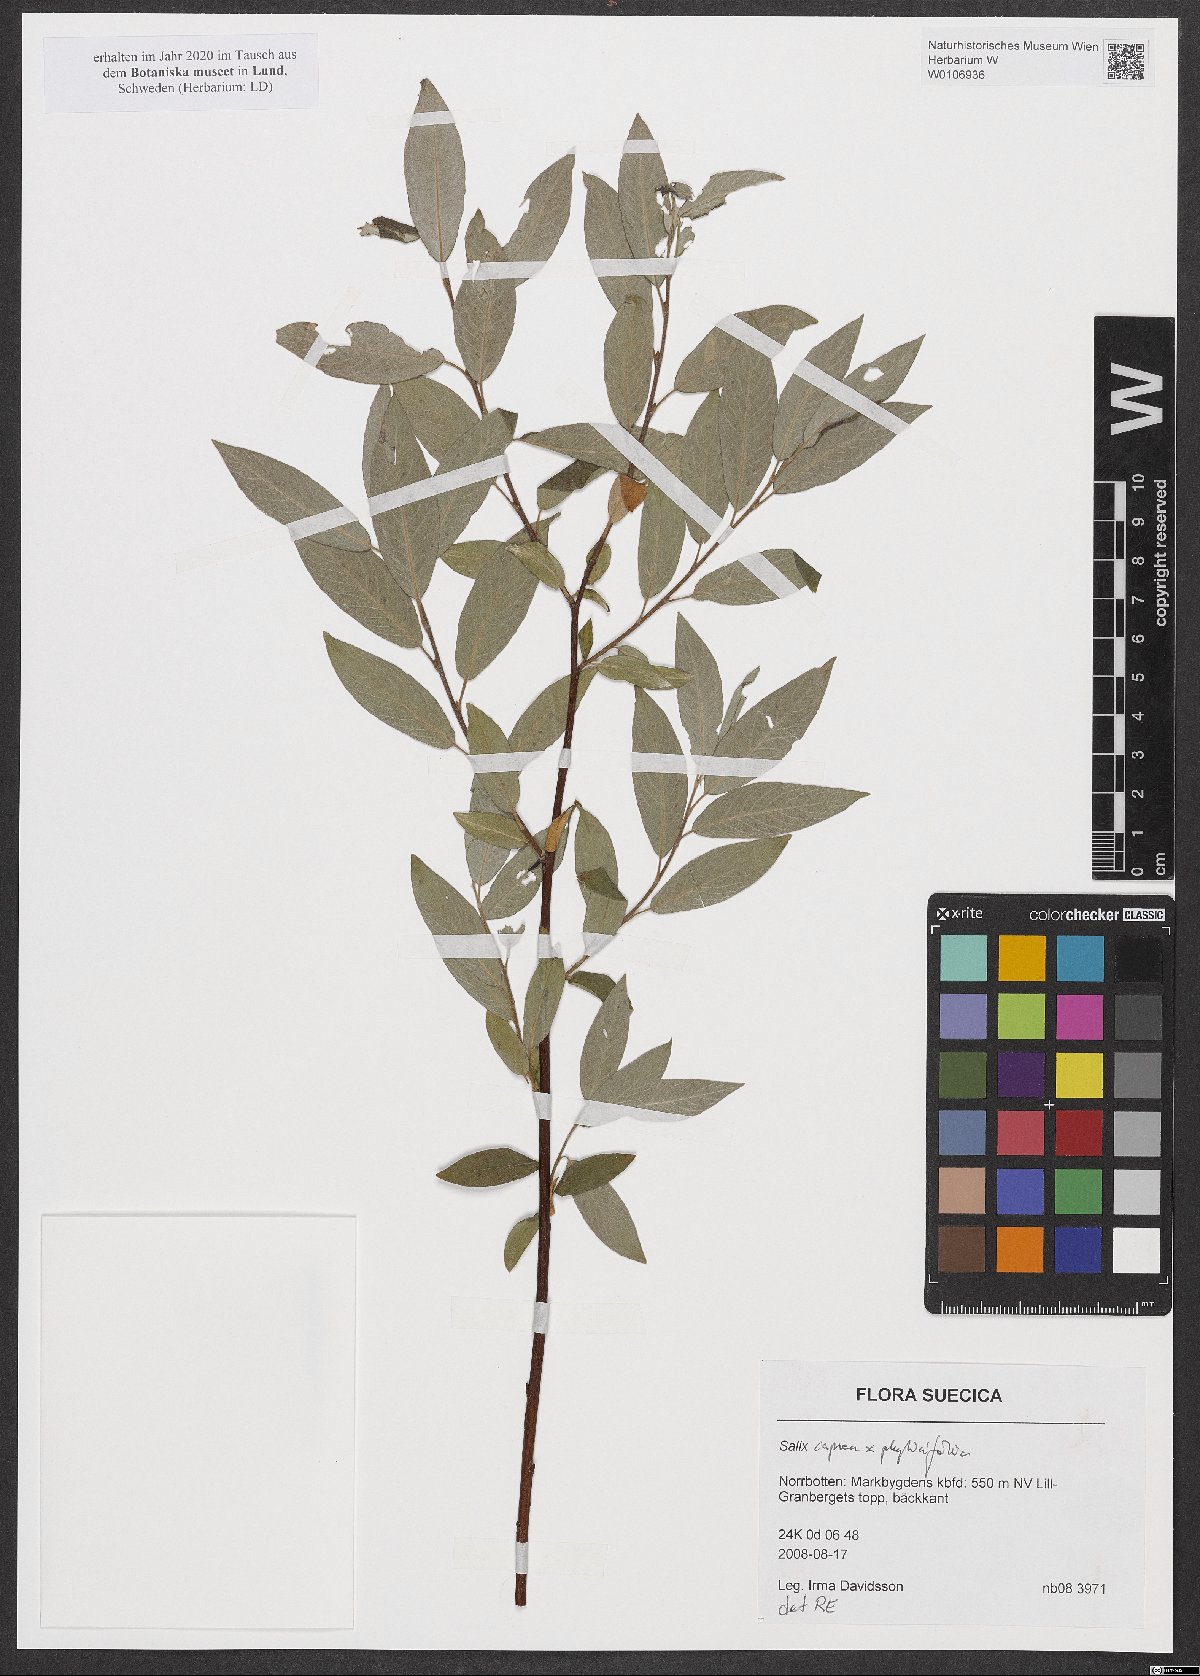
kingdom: Plantae
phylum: Tracheophyta
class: Magnoliopsida
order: Malpighiales
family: Salicaceae
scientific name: Salicaceae
